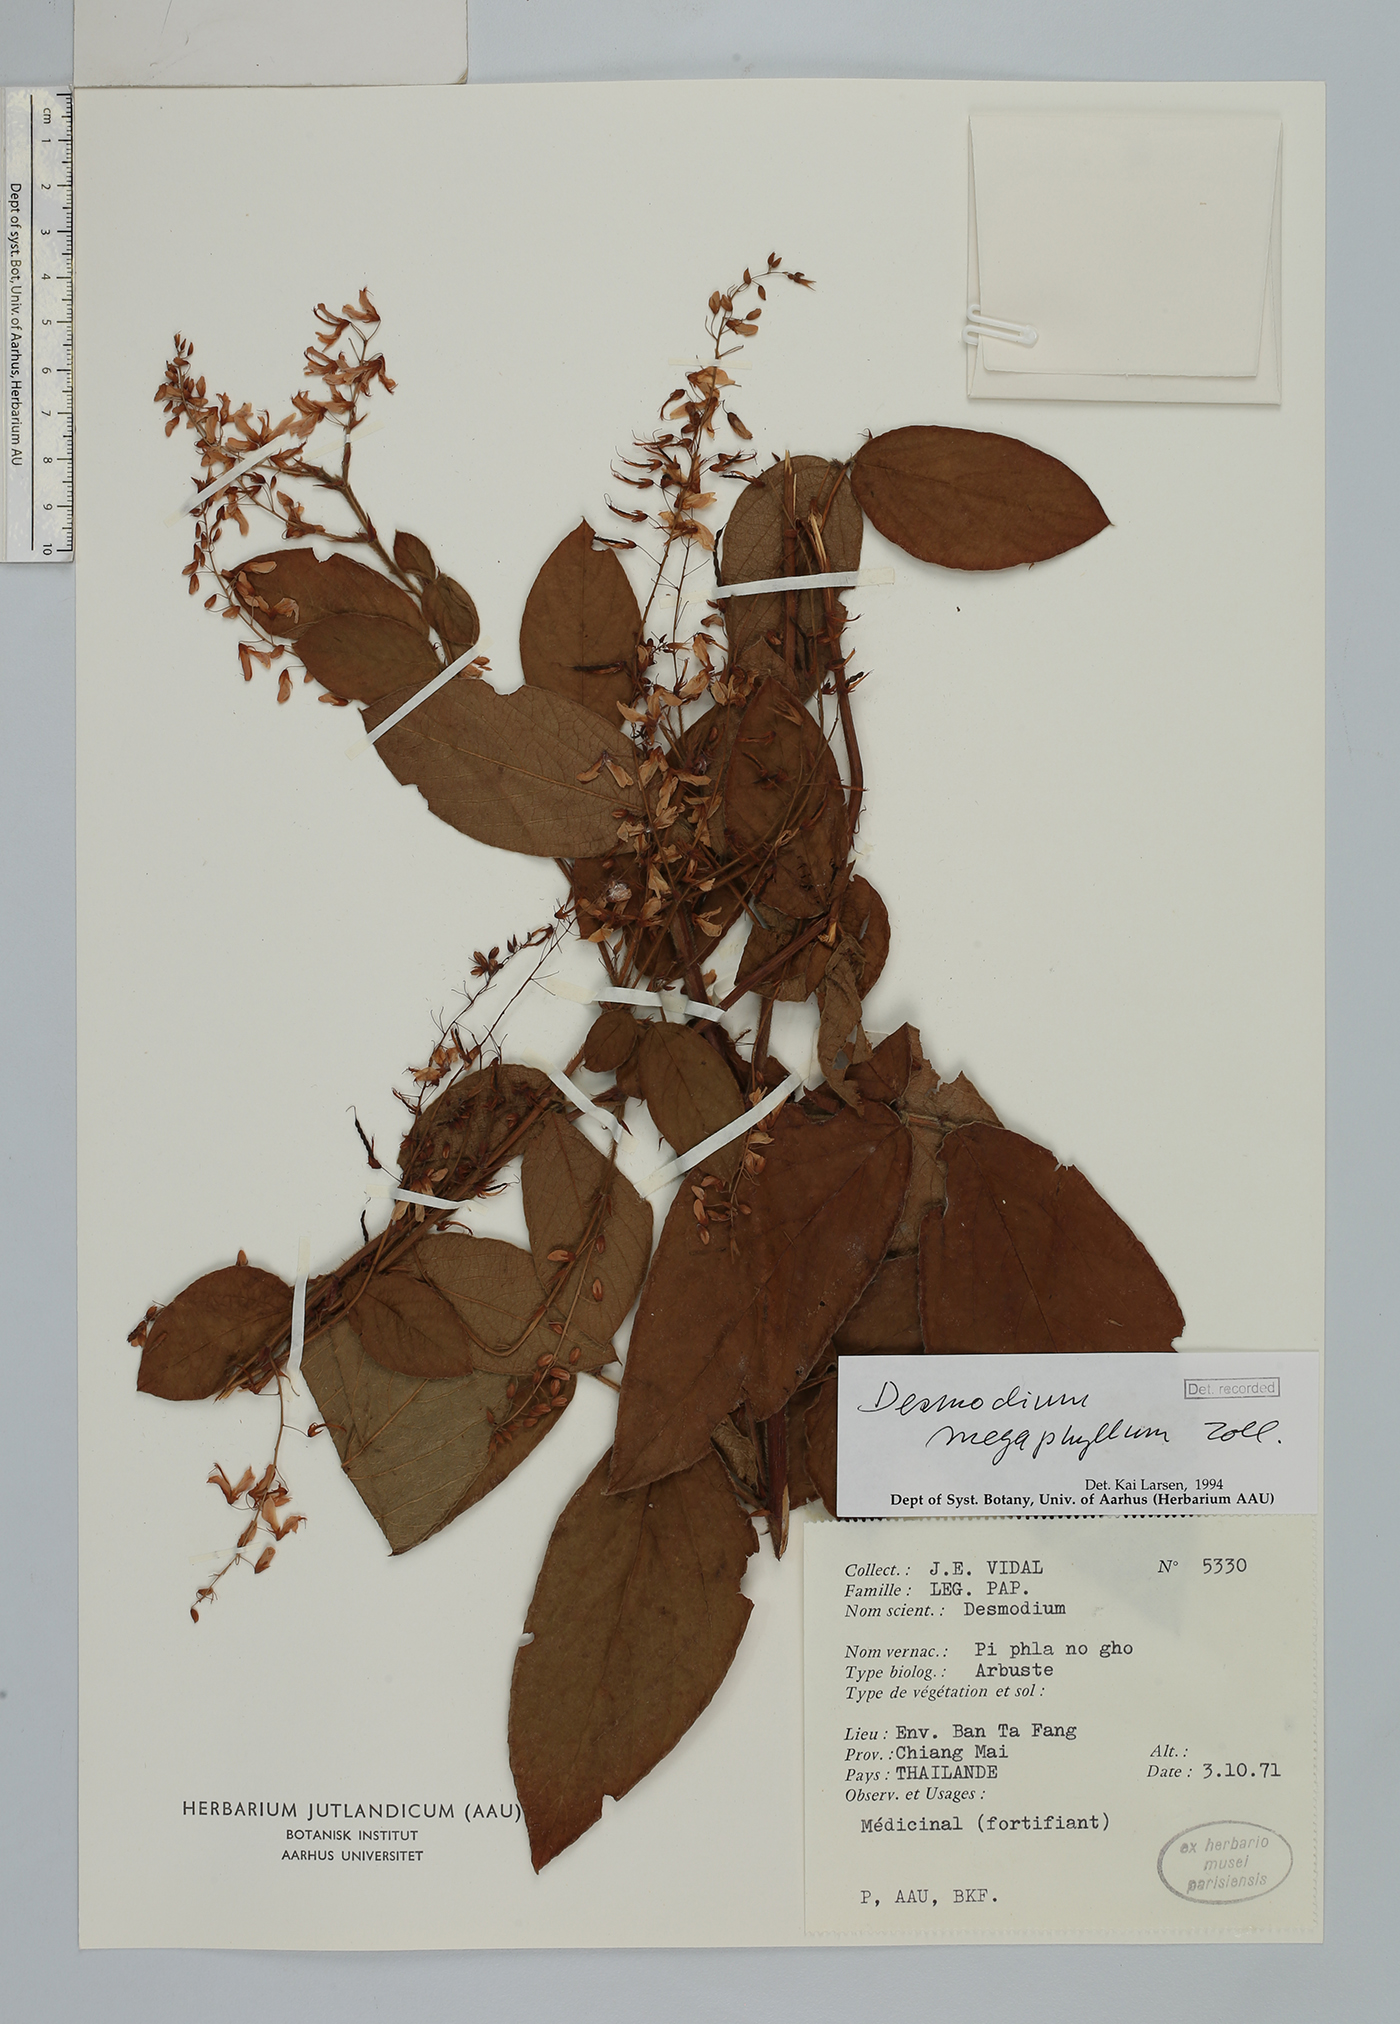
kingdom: Plantae
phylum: Tracheophyta
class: Magnoliopsida
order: Fabales
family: Fabaceae
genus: Ototropis
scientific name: Ototropis multiflora
